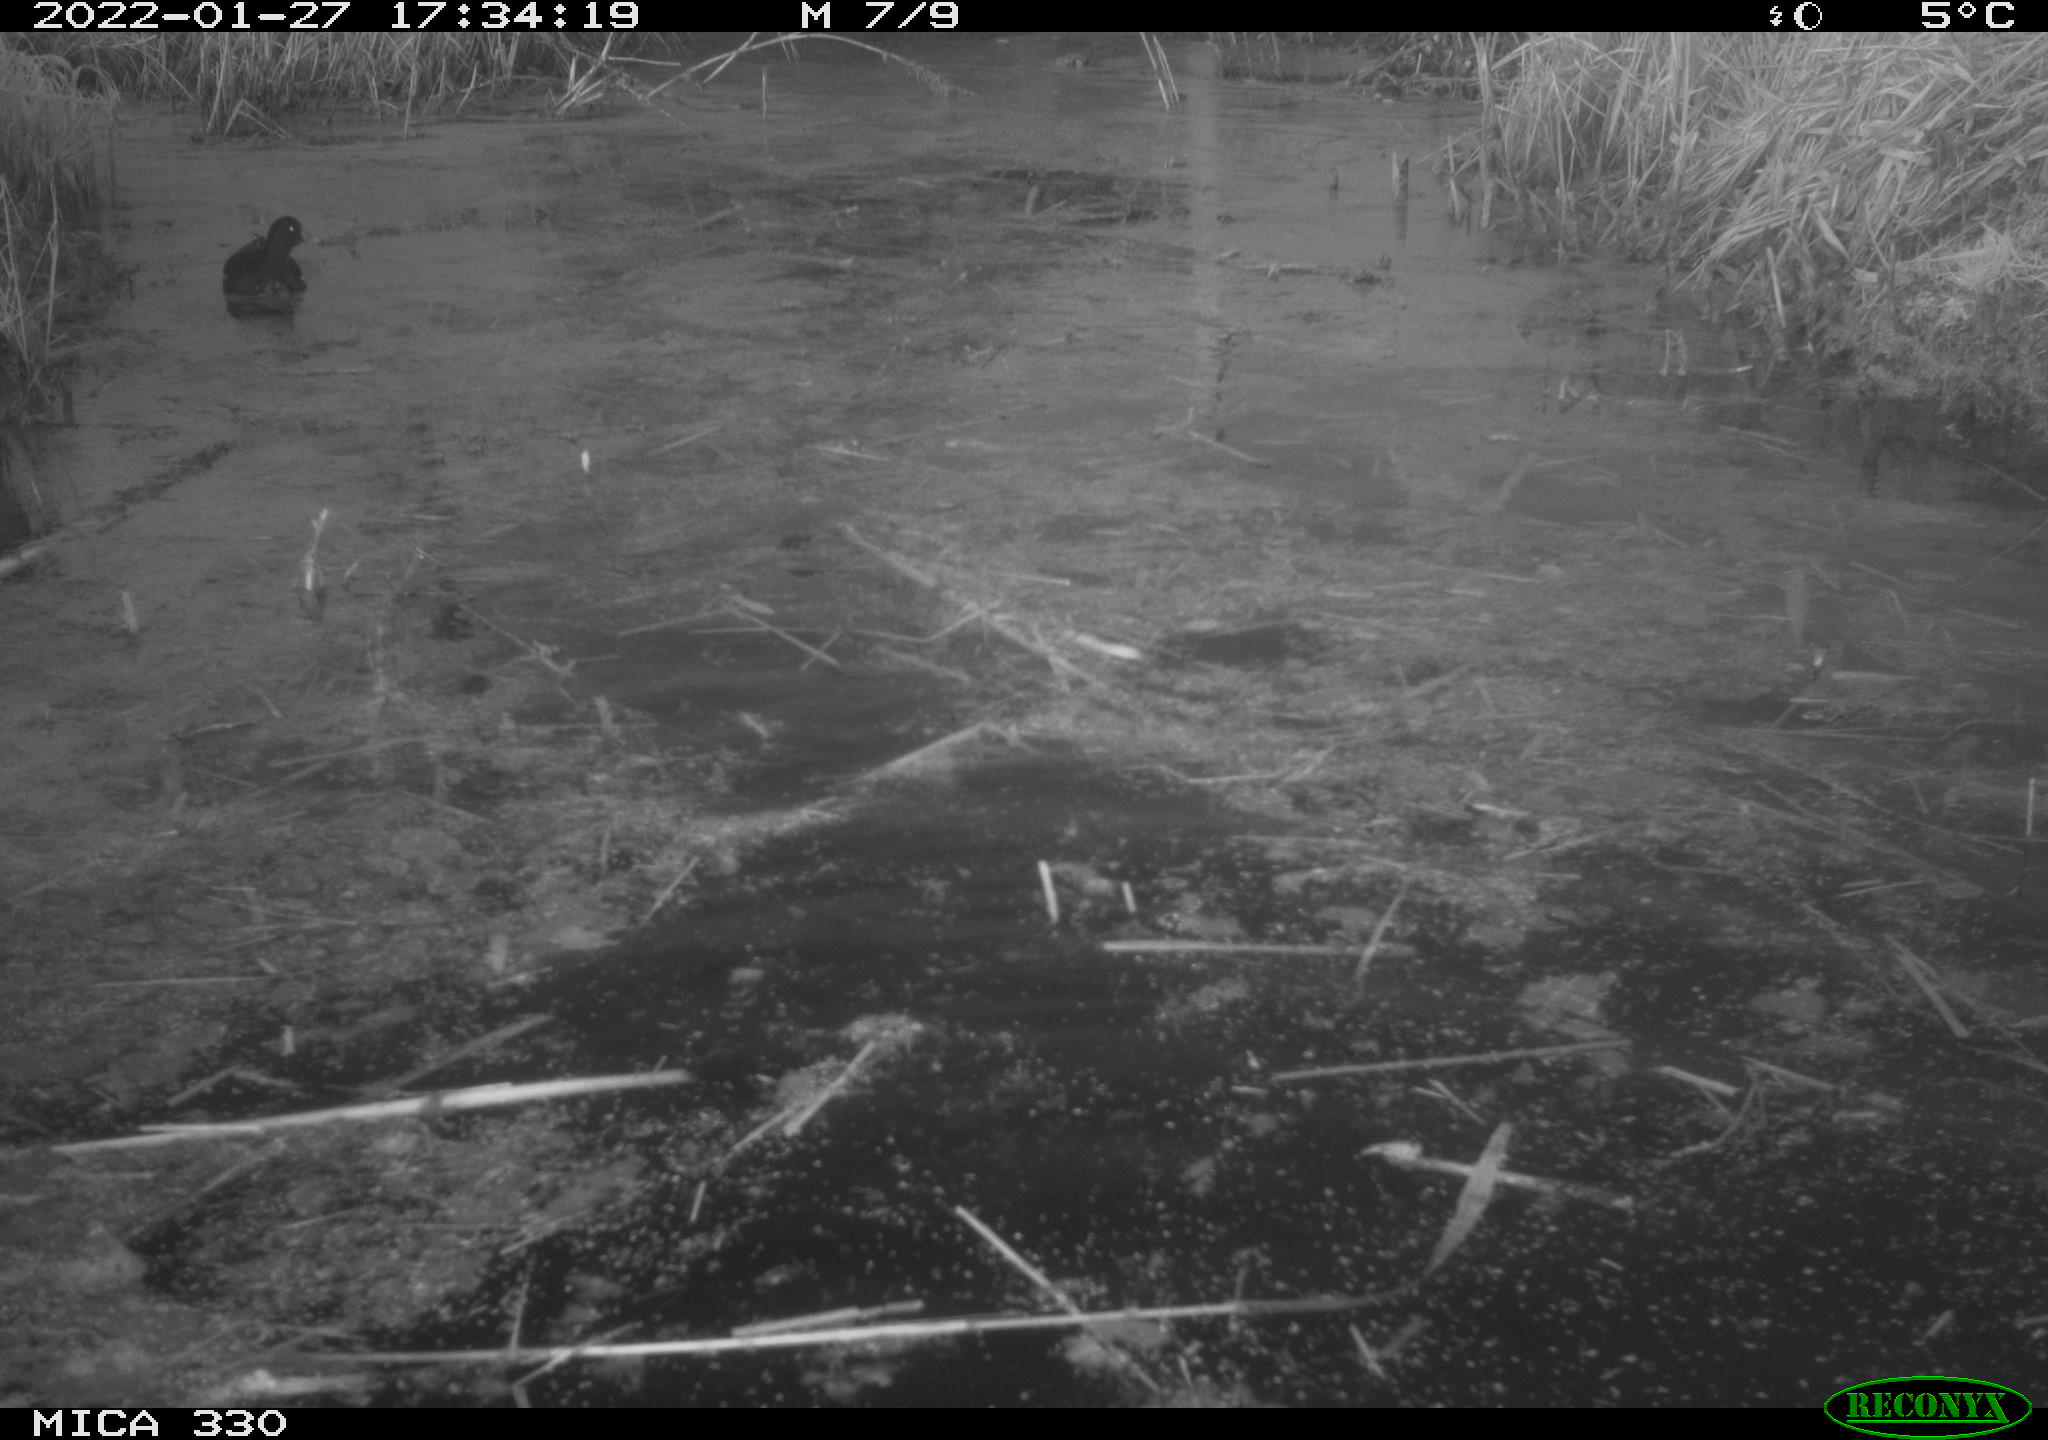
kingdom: Animalia
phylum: Chordata
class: Aves
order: Gruiformes
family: Rallidae
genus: Gallinula
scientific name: Gallinula chloropus
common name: Common moorhen
